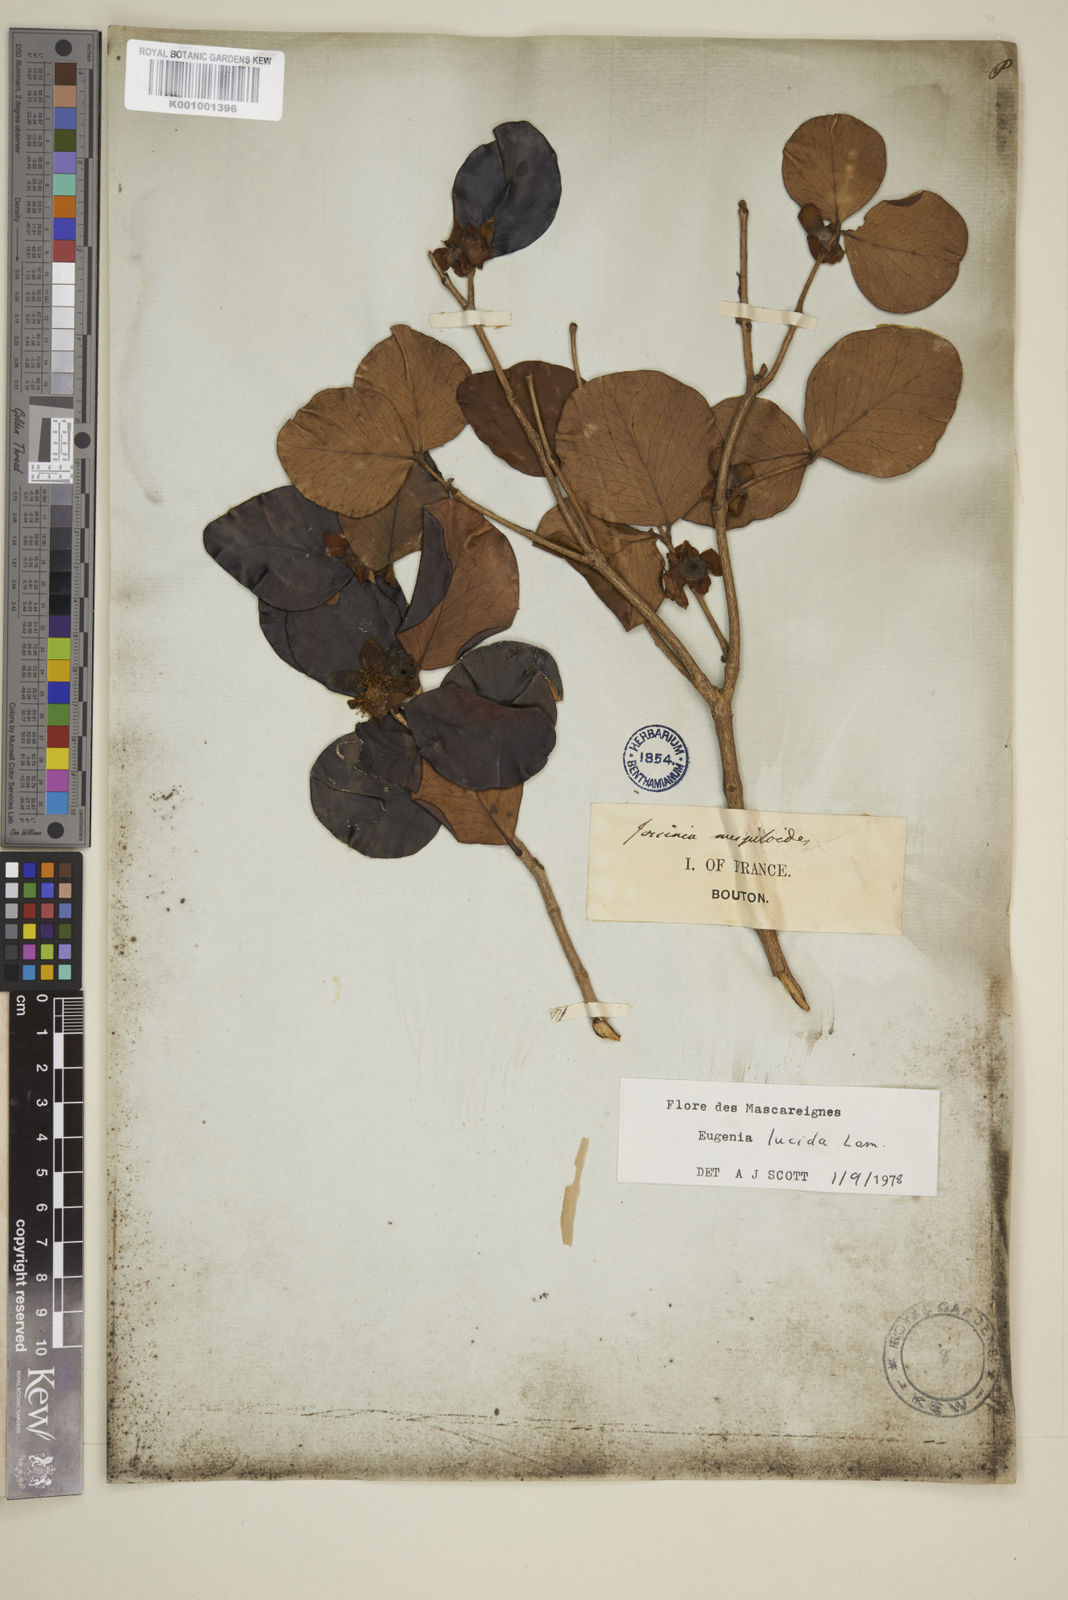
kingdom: Plantae
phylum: Tracheophyta
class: Magnoliopsida
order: Myrtales
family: Myrtaceae
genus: Eugenia
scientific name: Eugenia lucida
